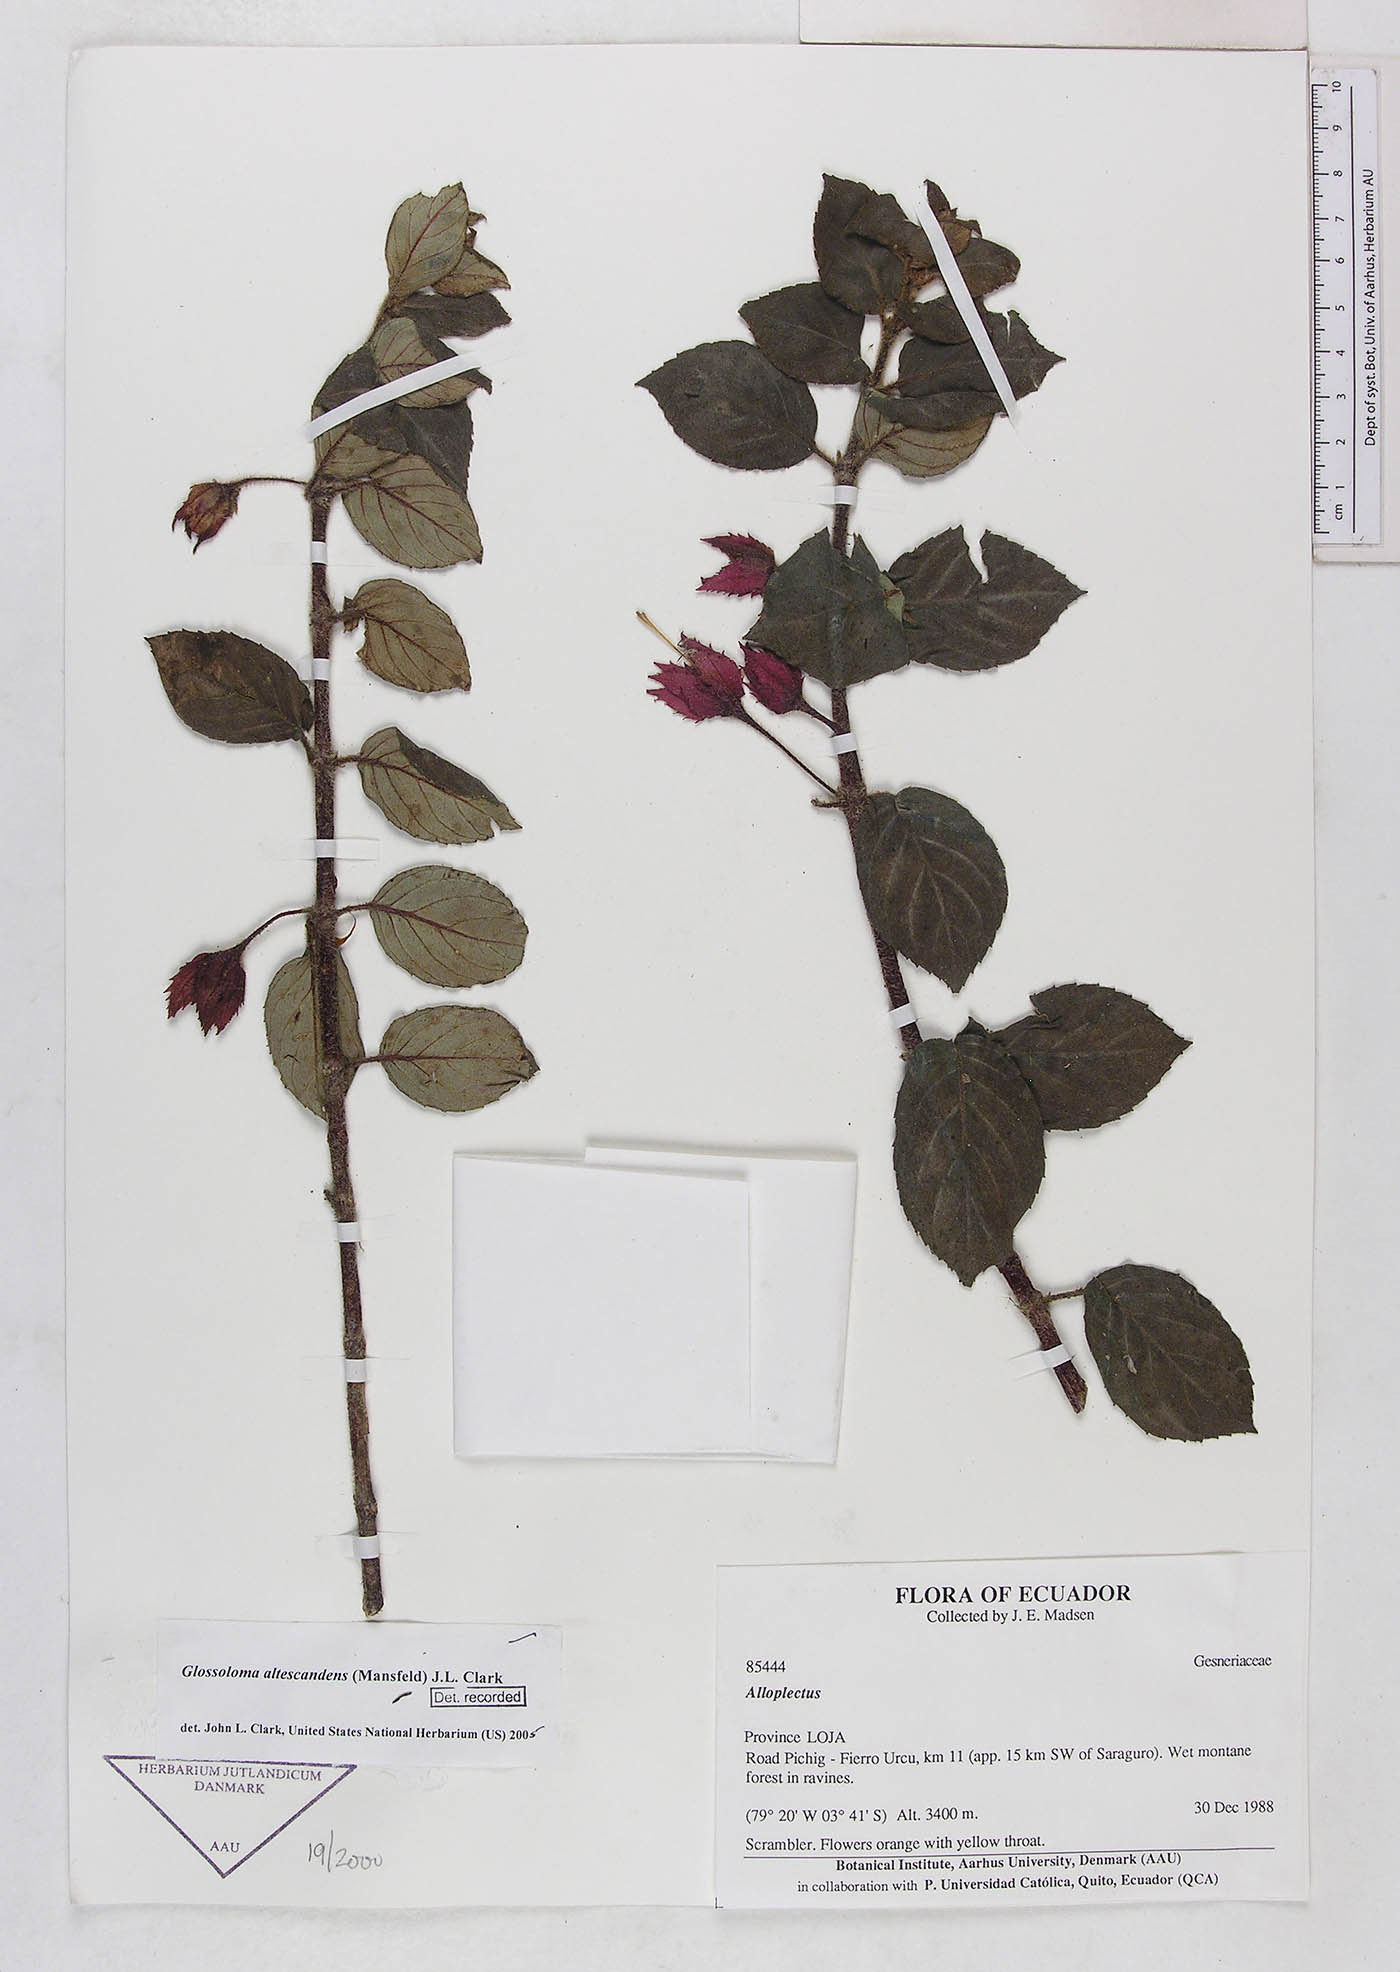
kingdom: Plantae
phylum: Tracheophyta
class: Magnoliopsida
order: Lamiales
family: Gesneriaceae
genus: Glossoloma
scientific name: Glossoloma altescandens
